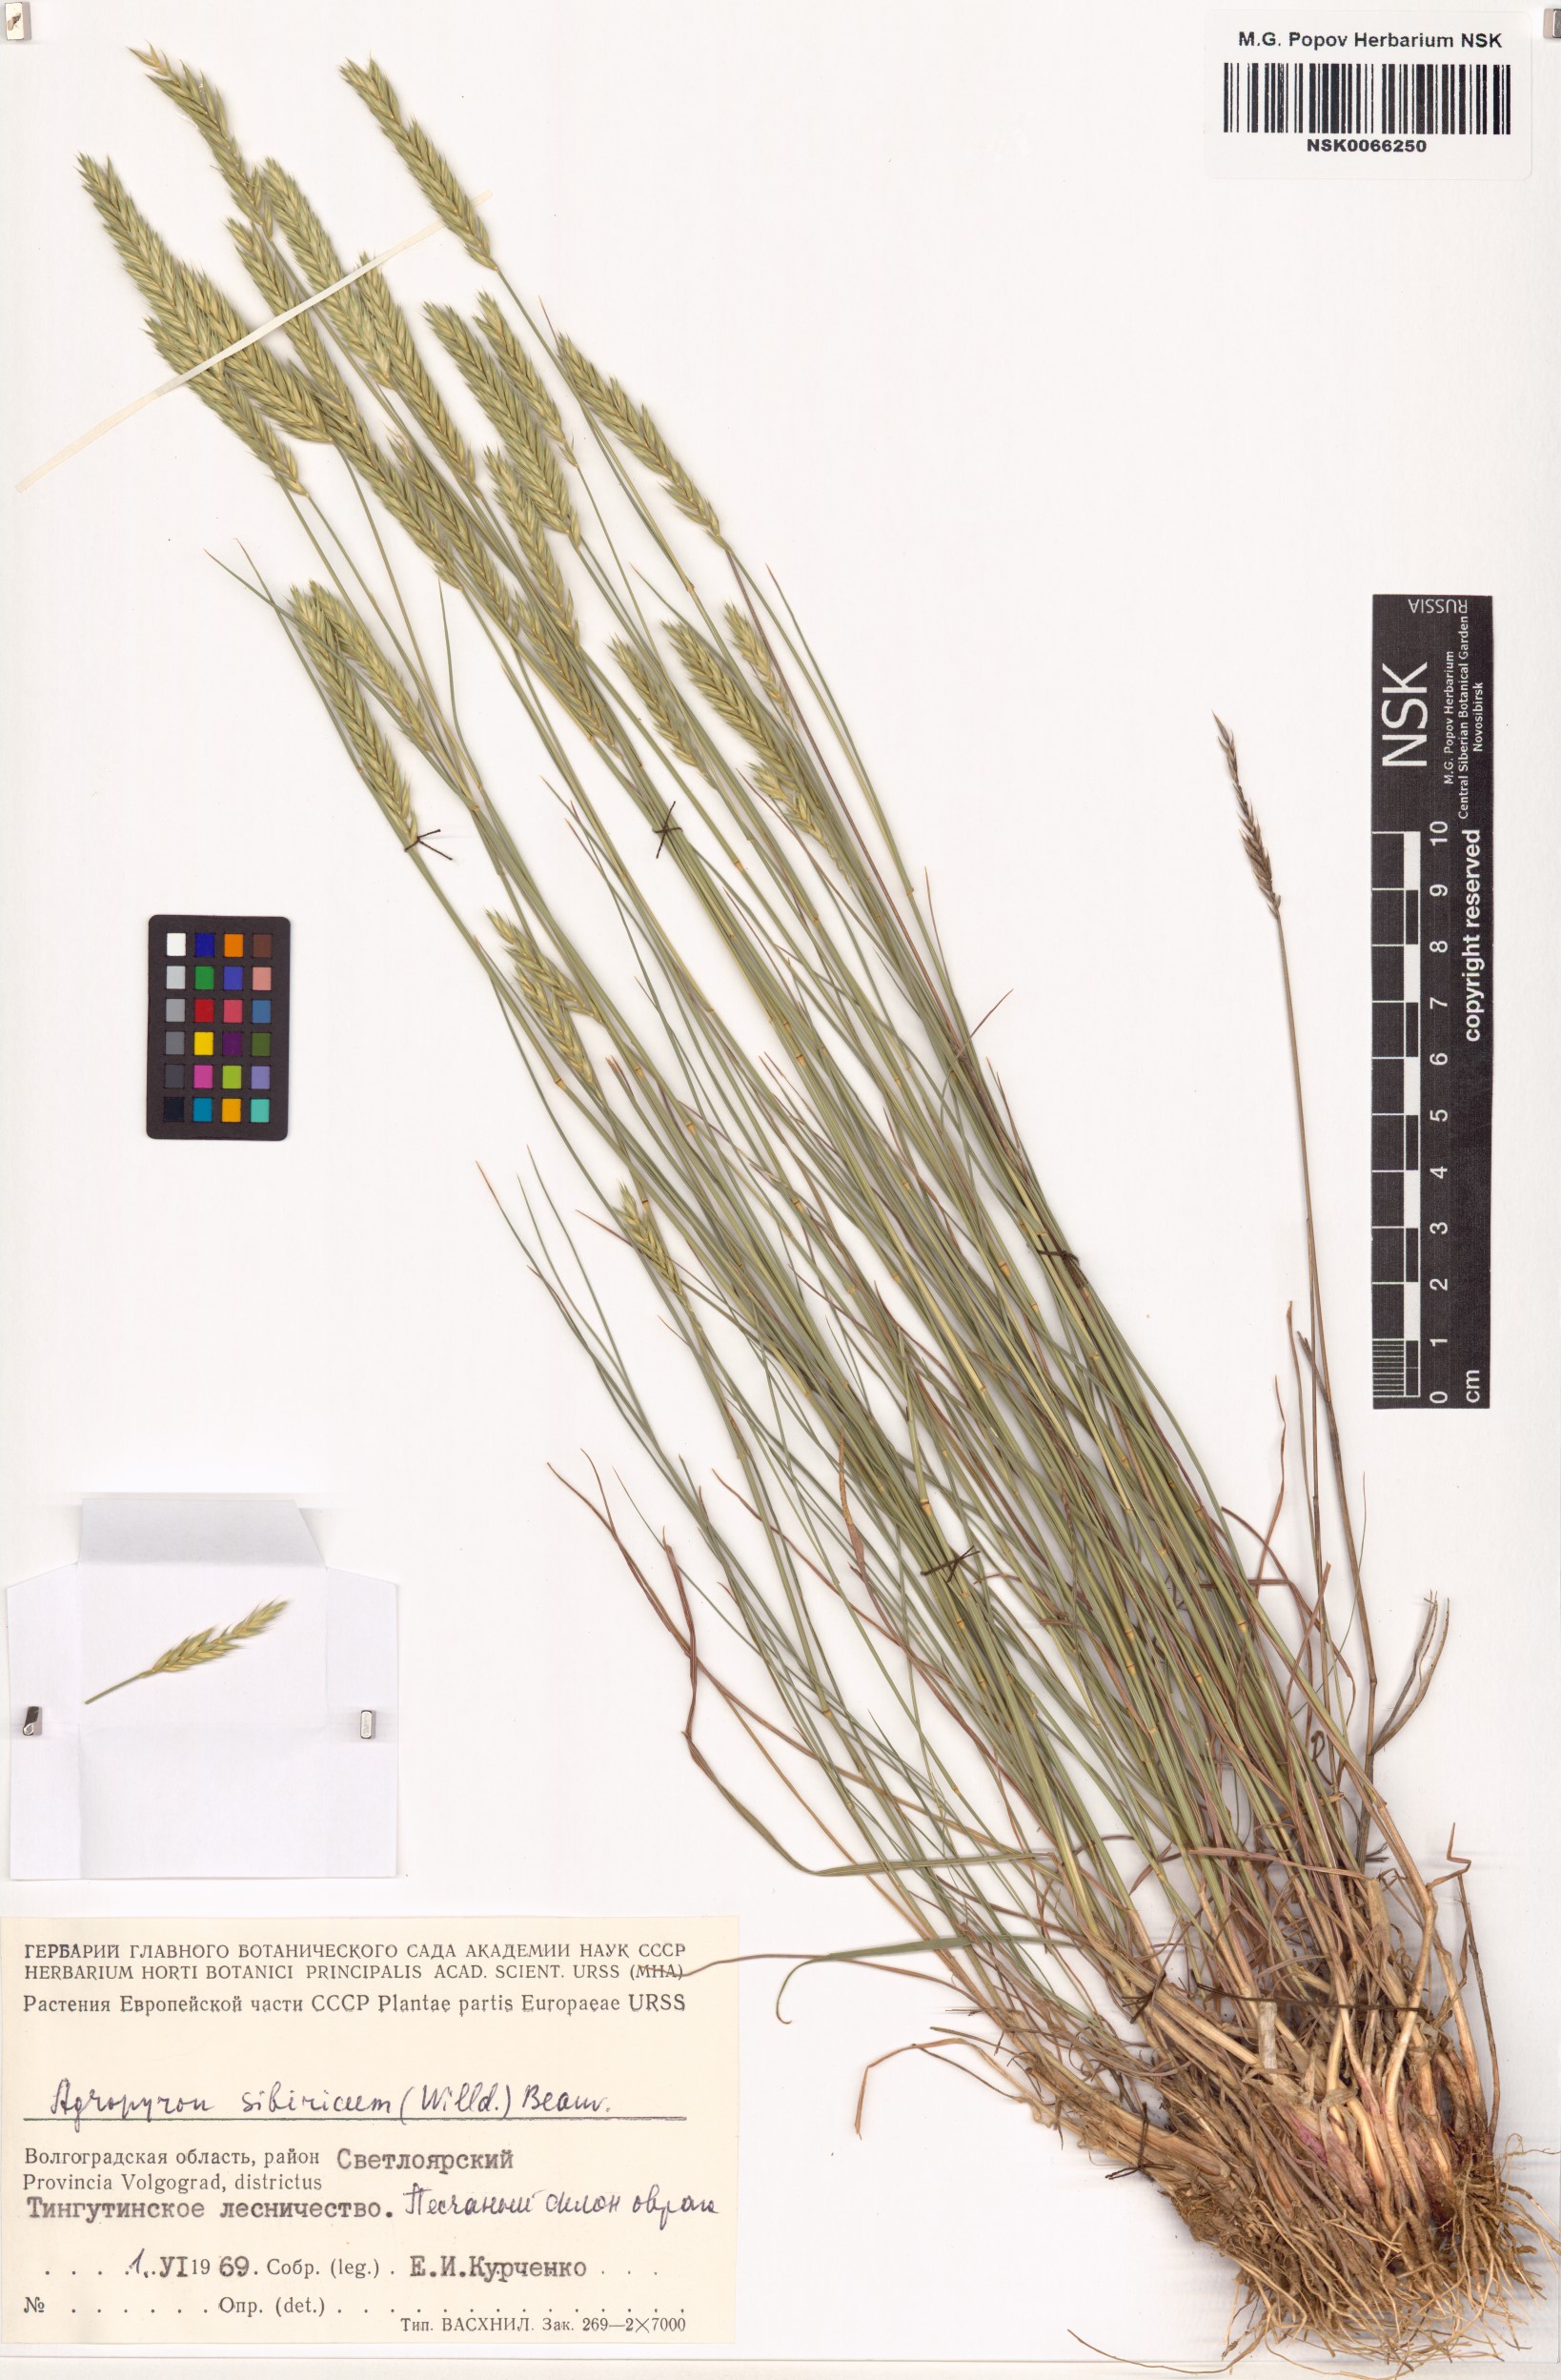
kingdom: Plantae
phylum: Tracheophyta
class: Liliopsida
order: Poales
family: Poaceae
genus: Agropyron
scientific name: Agropyron fragile
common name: Siberian wheatgrass
